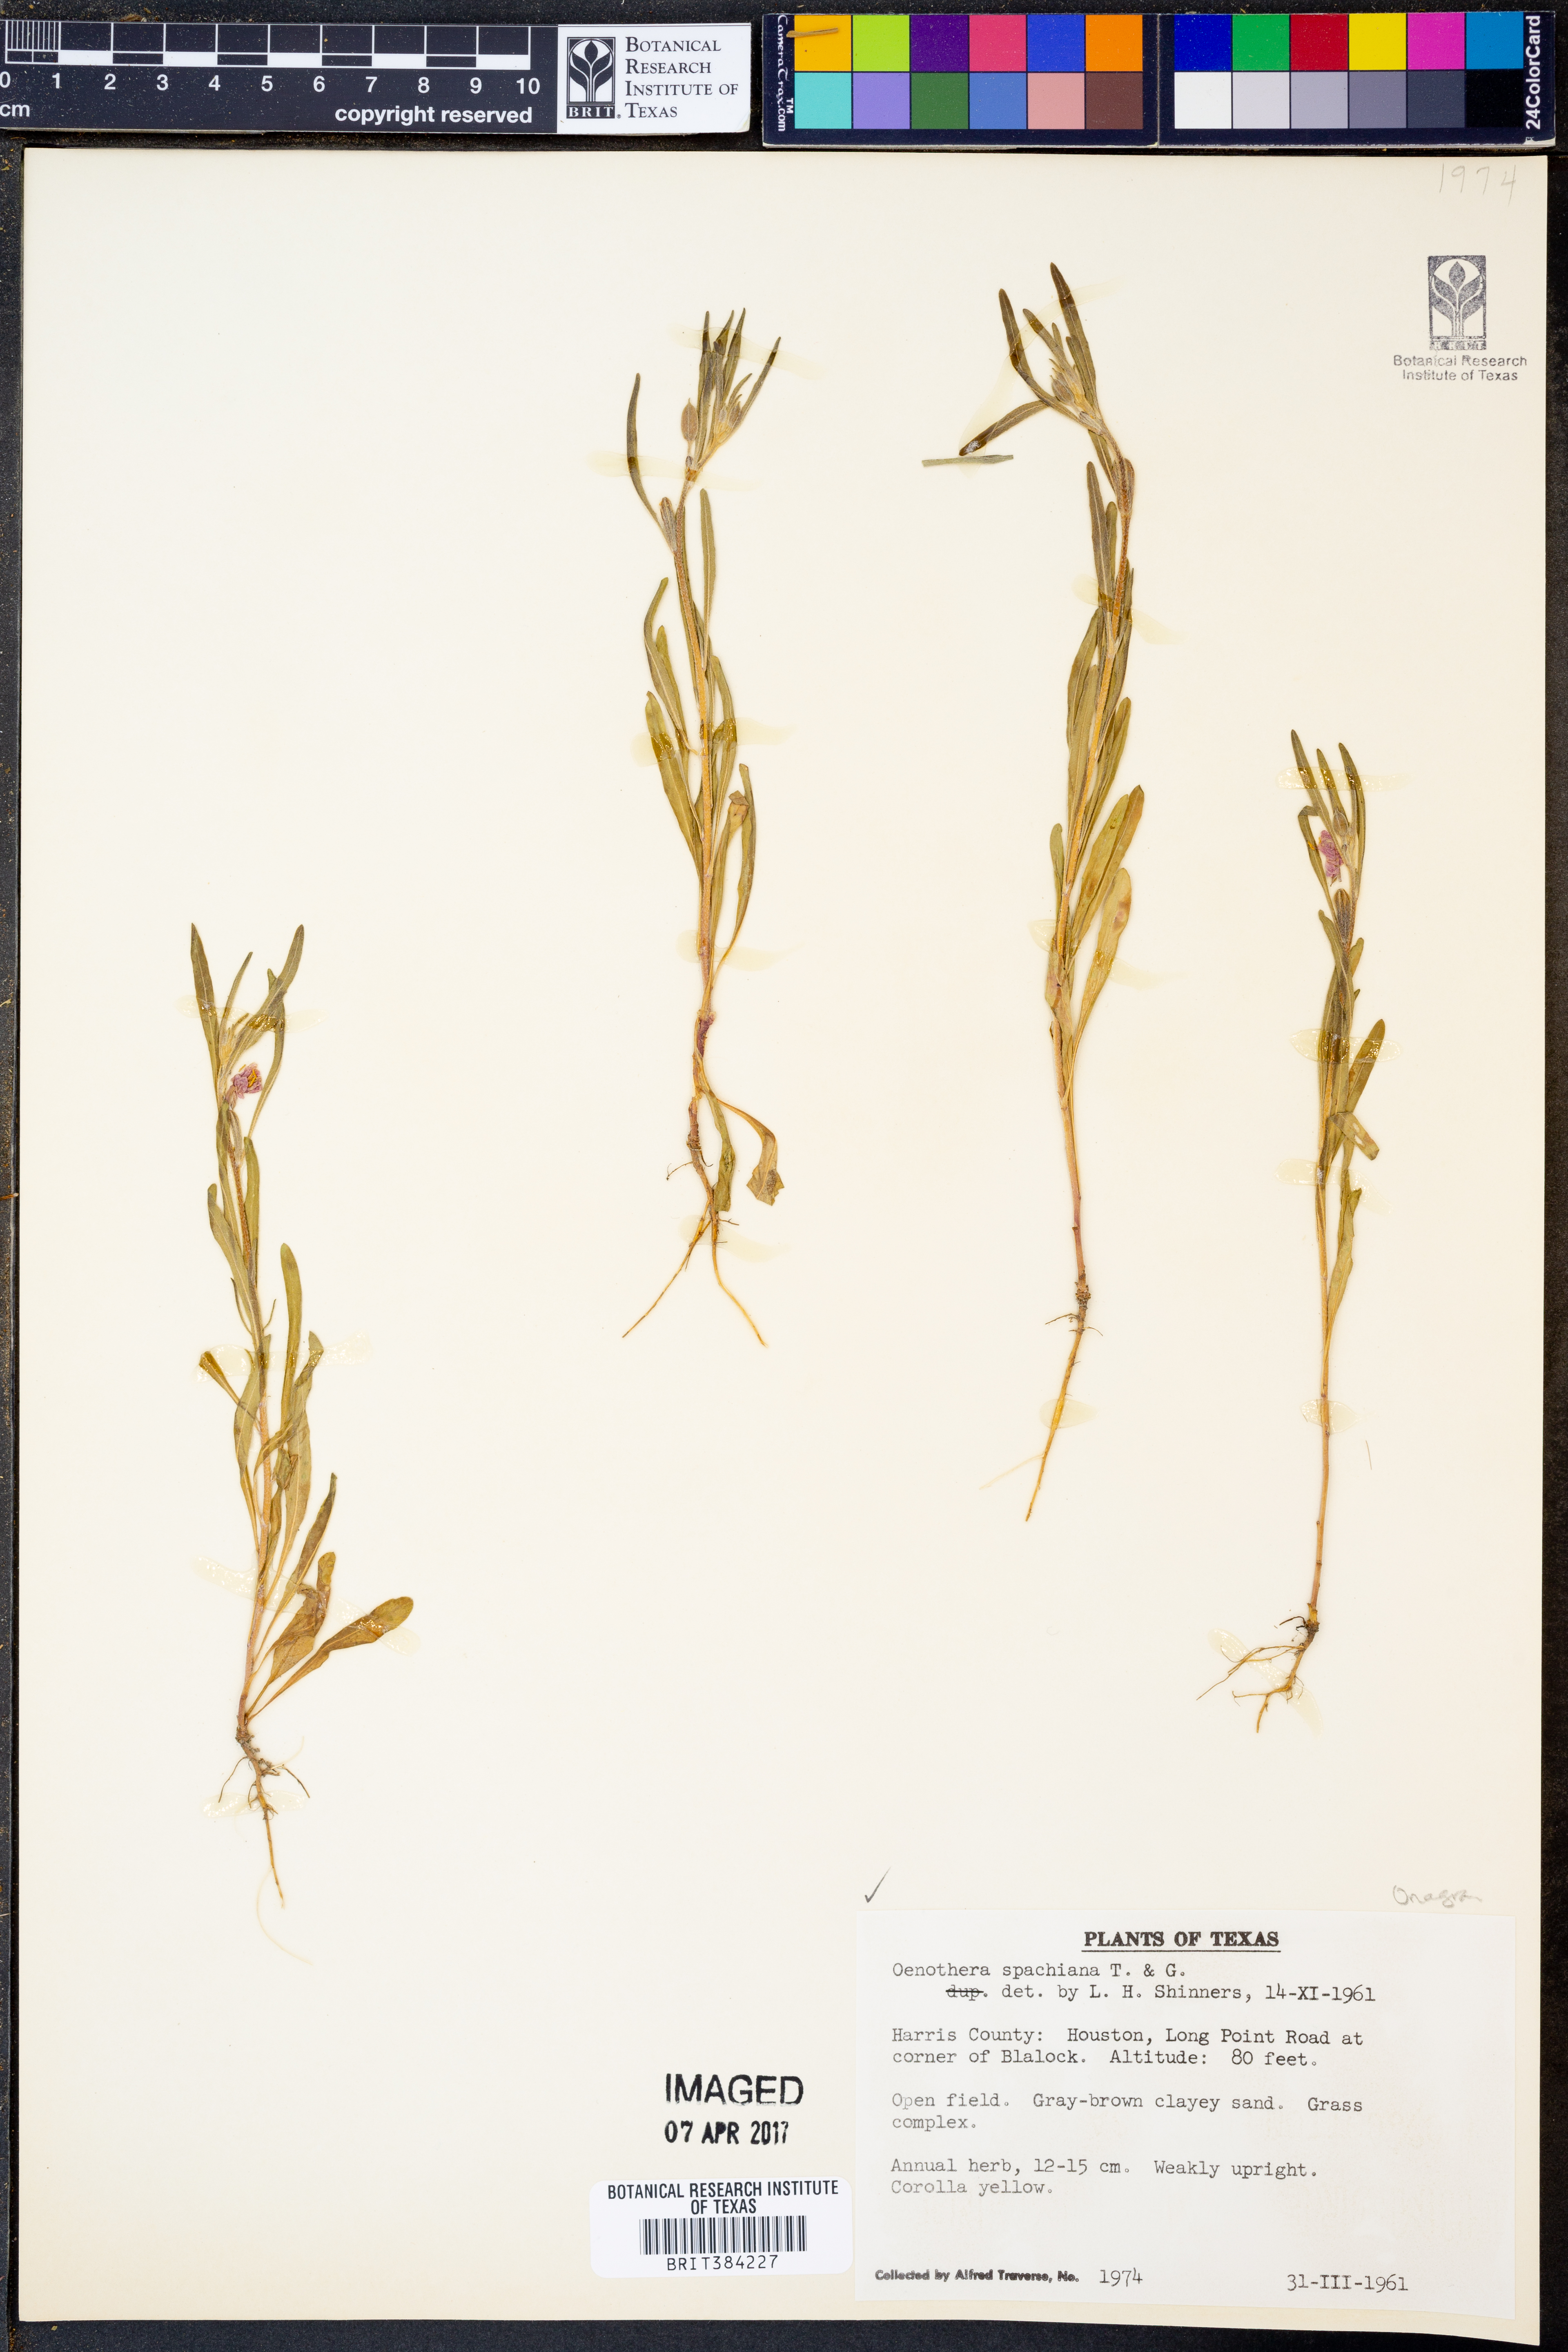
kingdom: Plantae
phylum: Tracheophyta
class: Magnoliopsida
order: Myrtales
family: Onagraceae
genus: Oenothera
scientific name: Oenothera spachiana
